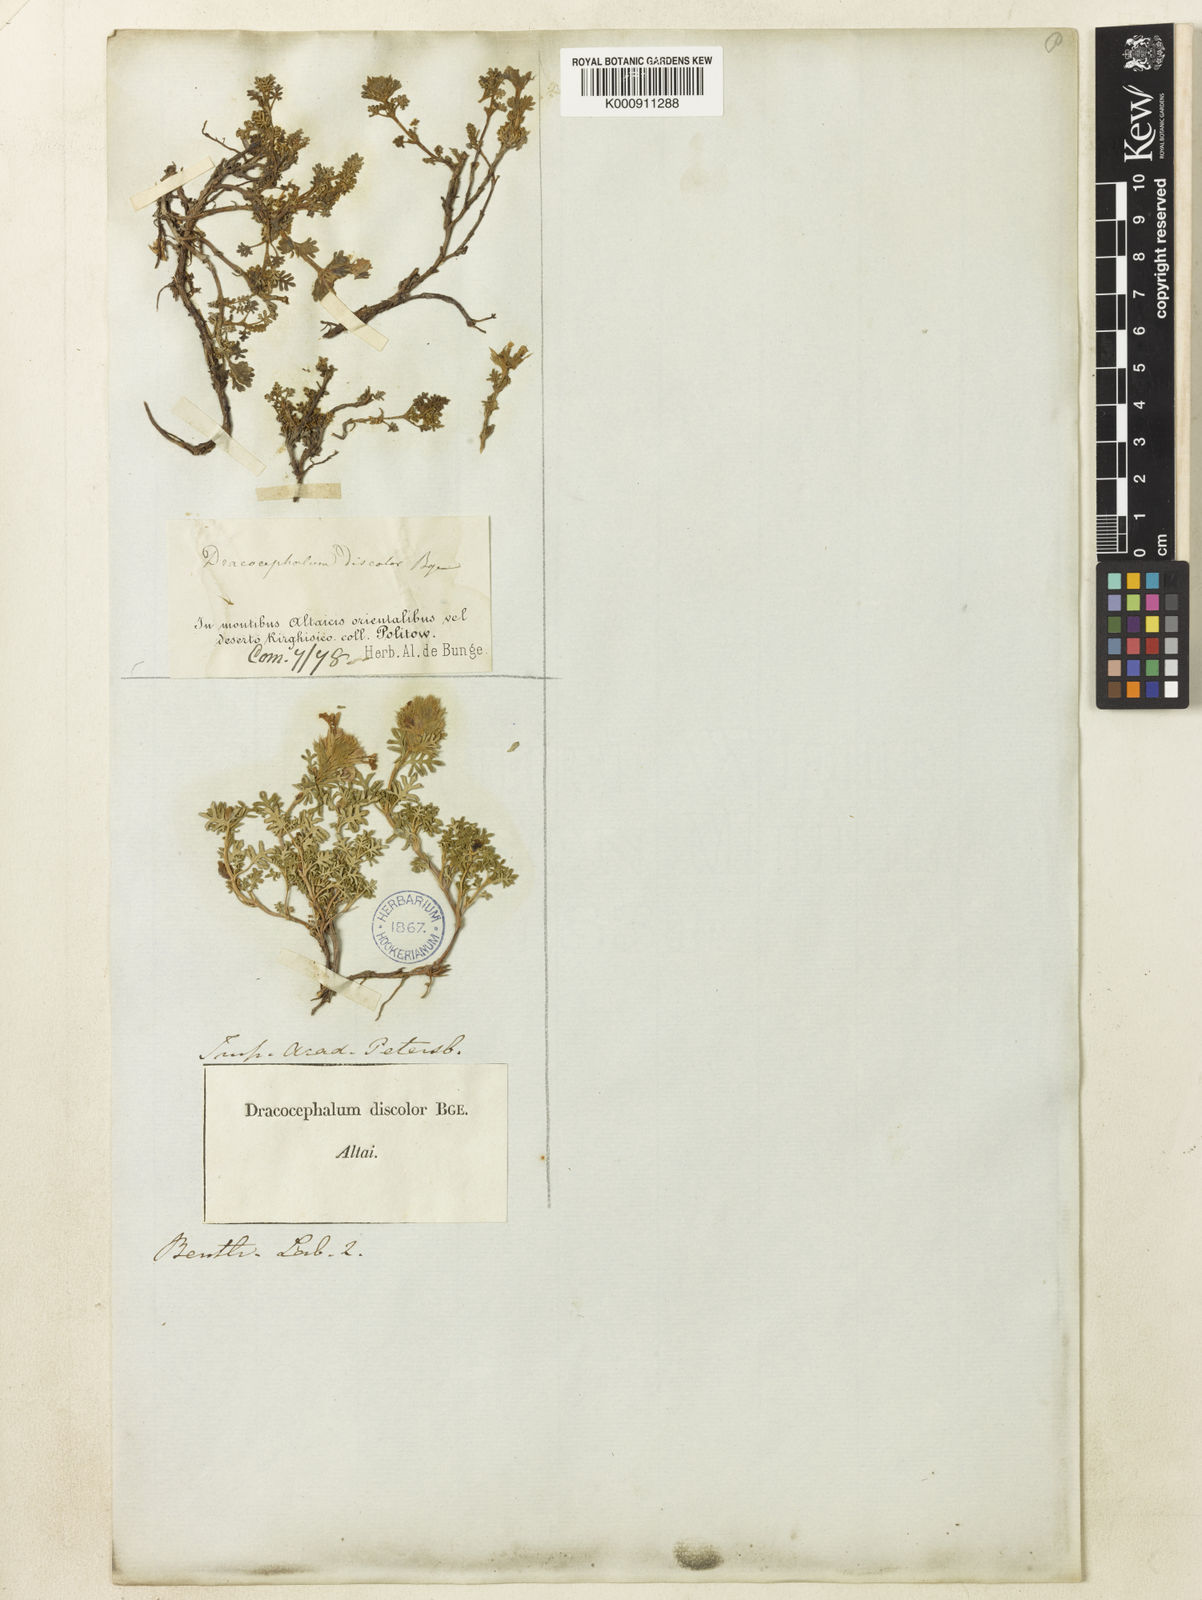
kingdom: Plantae
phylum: Tracheophyta
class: Magnoliopsida
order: Lamiales
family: Lamiaceae
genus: Dracocephalum
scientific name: Dracocephalum discolor
